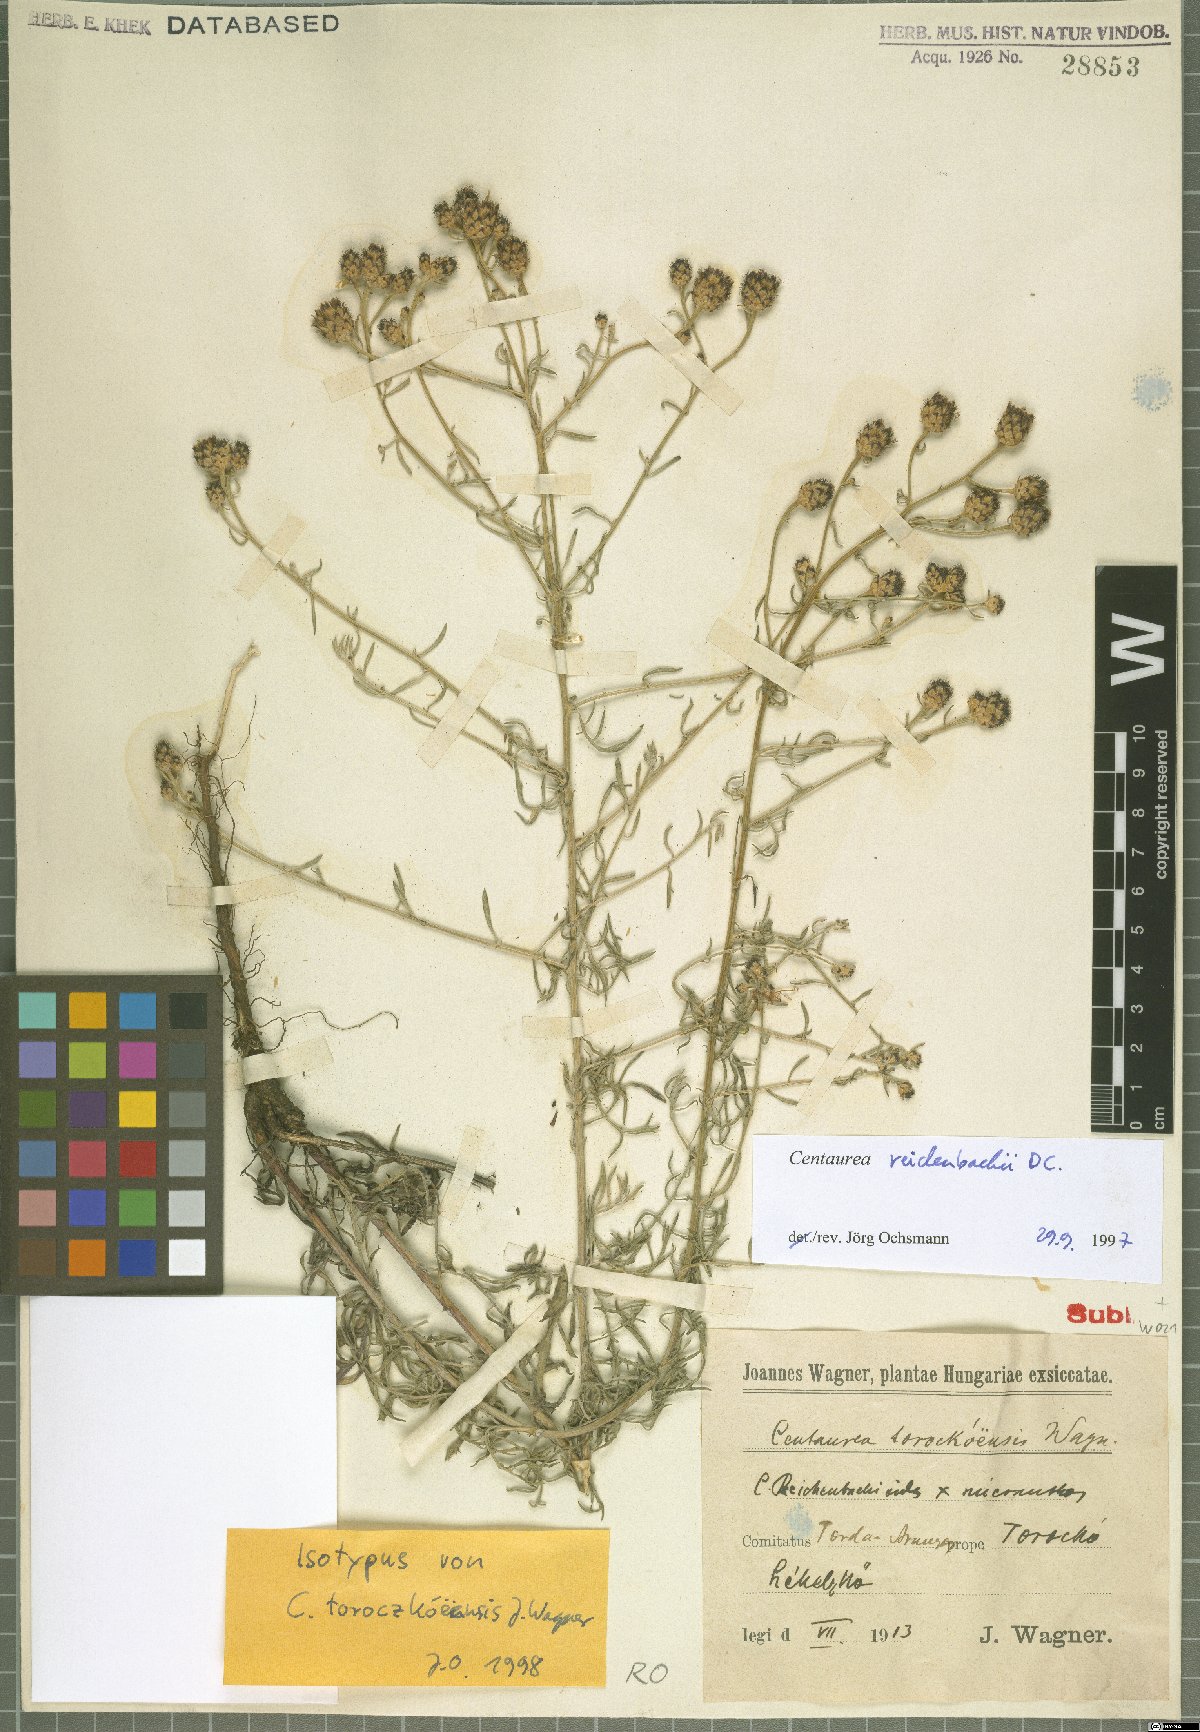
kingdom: Plantae
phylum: Tracheophyta
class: Magnoliopsida
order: Asterales
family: Asteraceae
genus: Centaurea
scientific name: Centaurea reichenbachii
